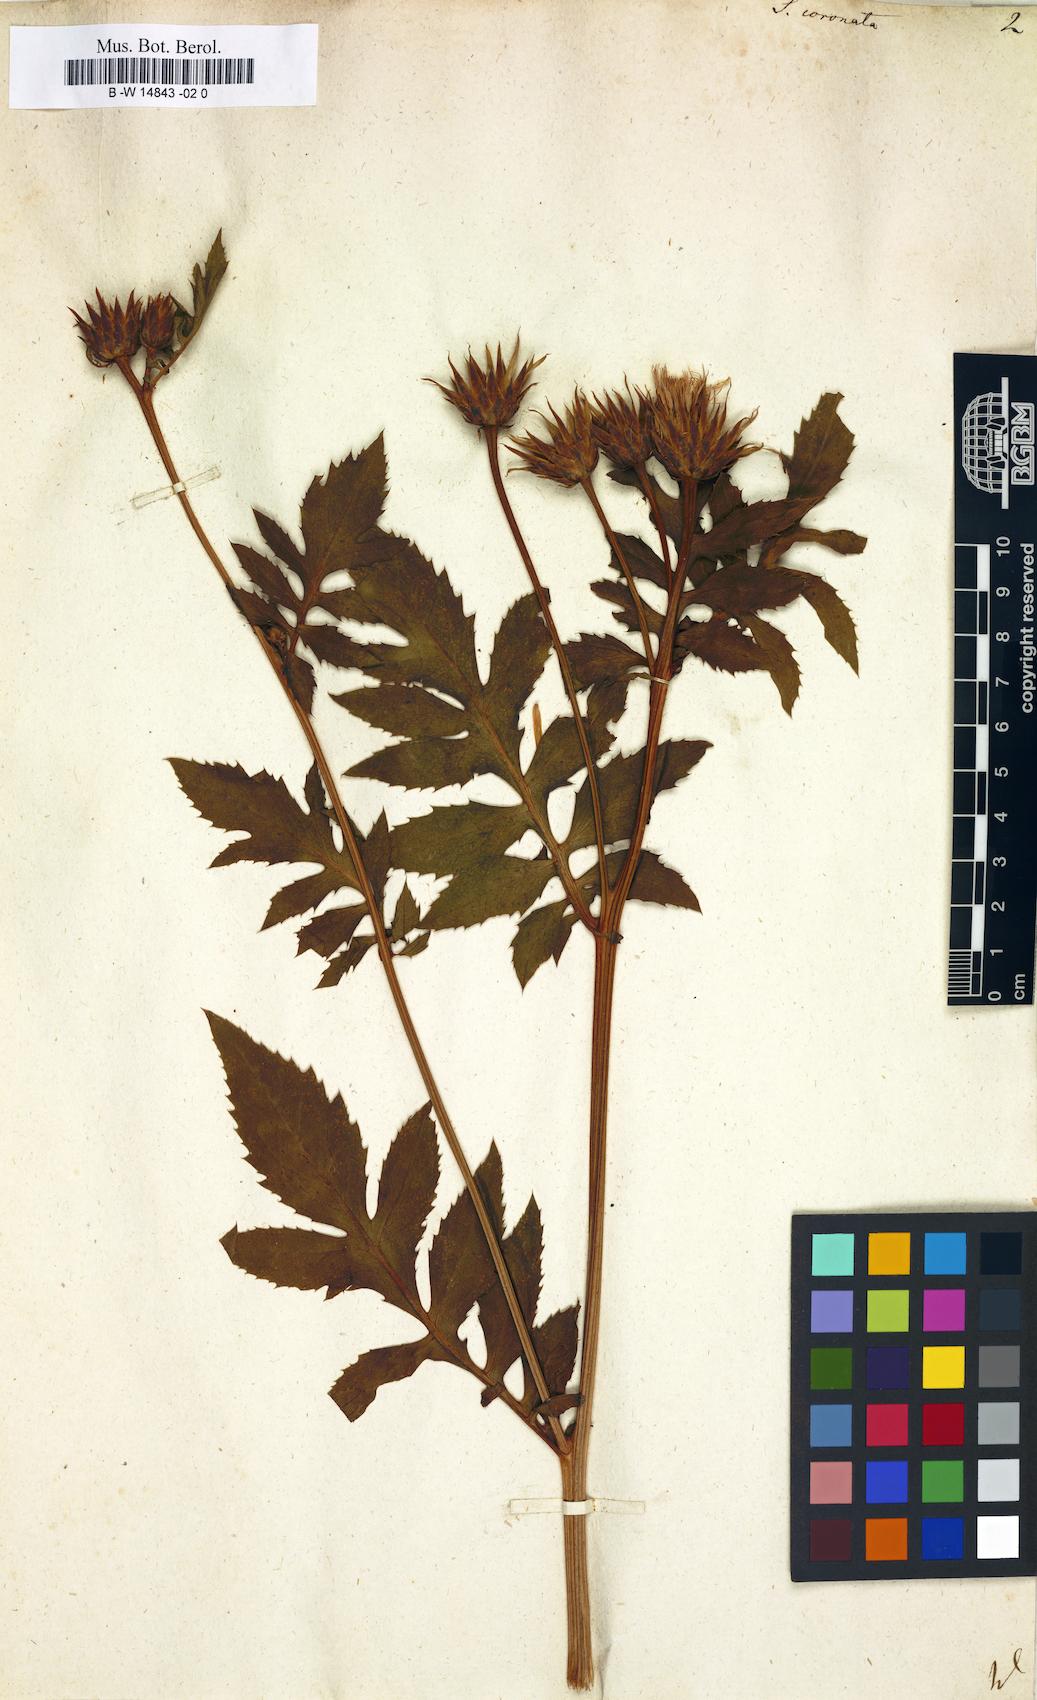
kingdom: Plantae
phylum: Tracheophyta
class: Magnoliopsida
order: Asterales
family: Asteraceae
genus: Serratula
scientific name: Serratula coronata
